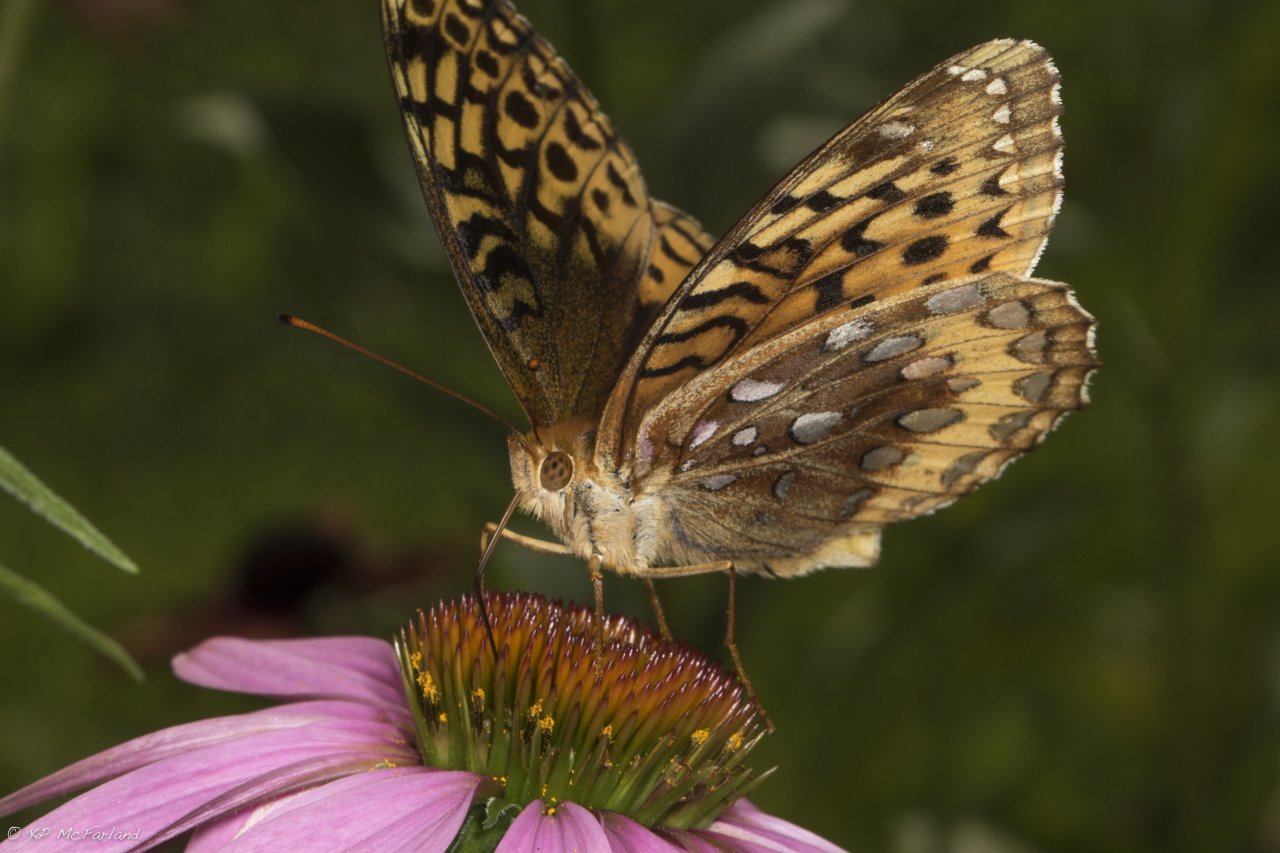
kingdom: Animalia
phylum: Arthropoda
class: Insecta
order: Lepidoptera
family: Nymphalidae
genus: Speyeria
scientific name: Speyeria cybele
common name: Great Spangled Fritillary
